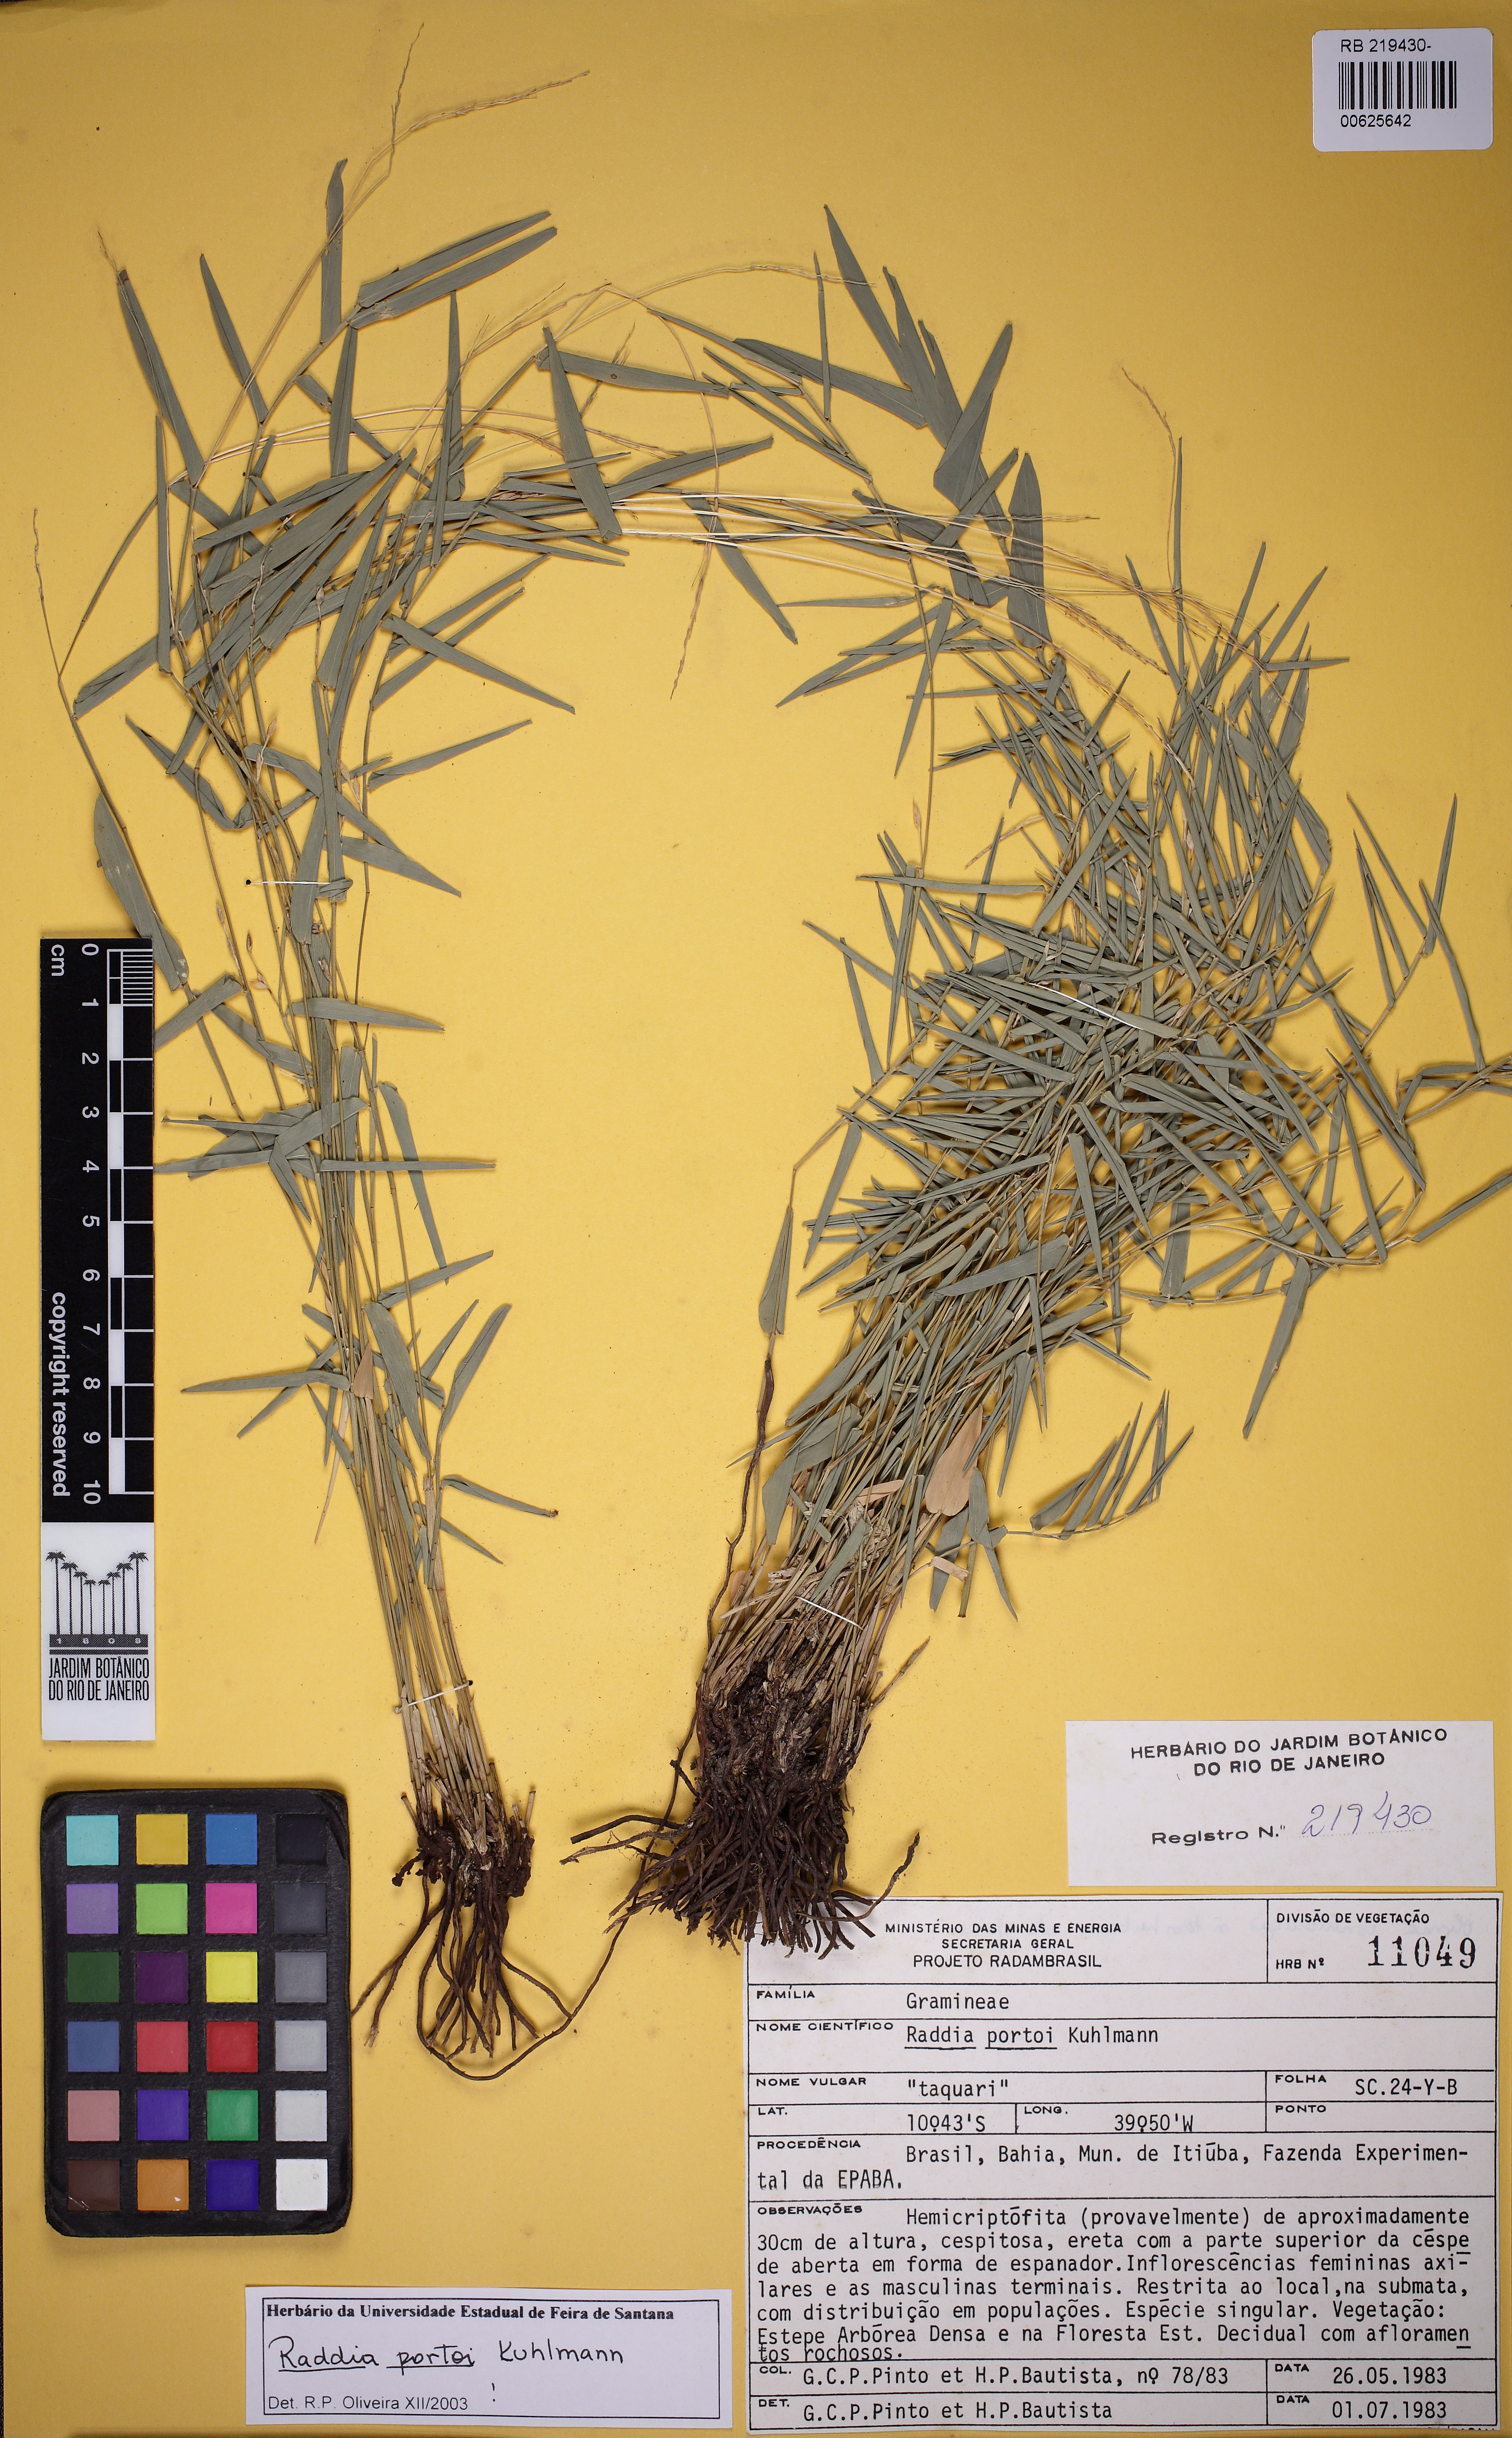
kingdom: Plantae
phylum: Tracheophyta
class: Liliopsida
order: Poales
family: Poaceae
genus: Raddia
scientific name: Raddia portoi
